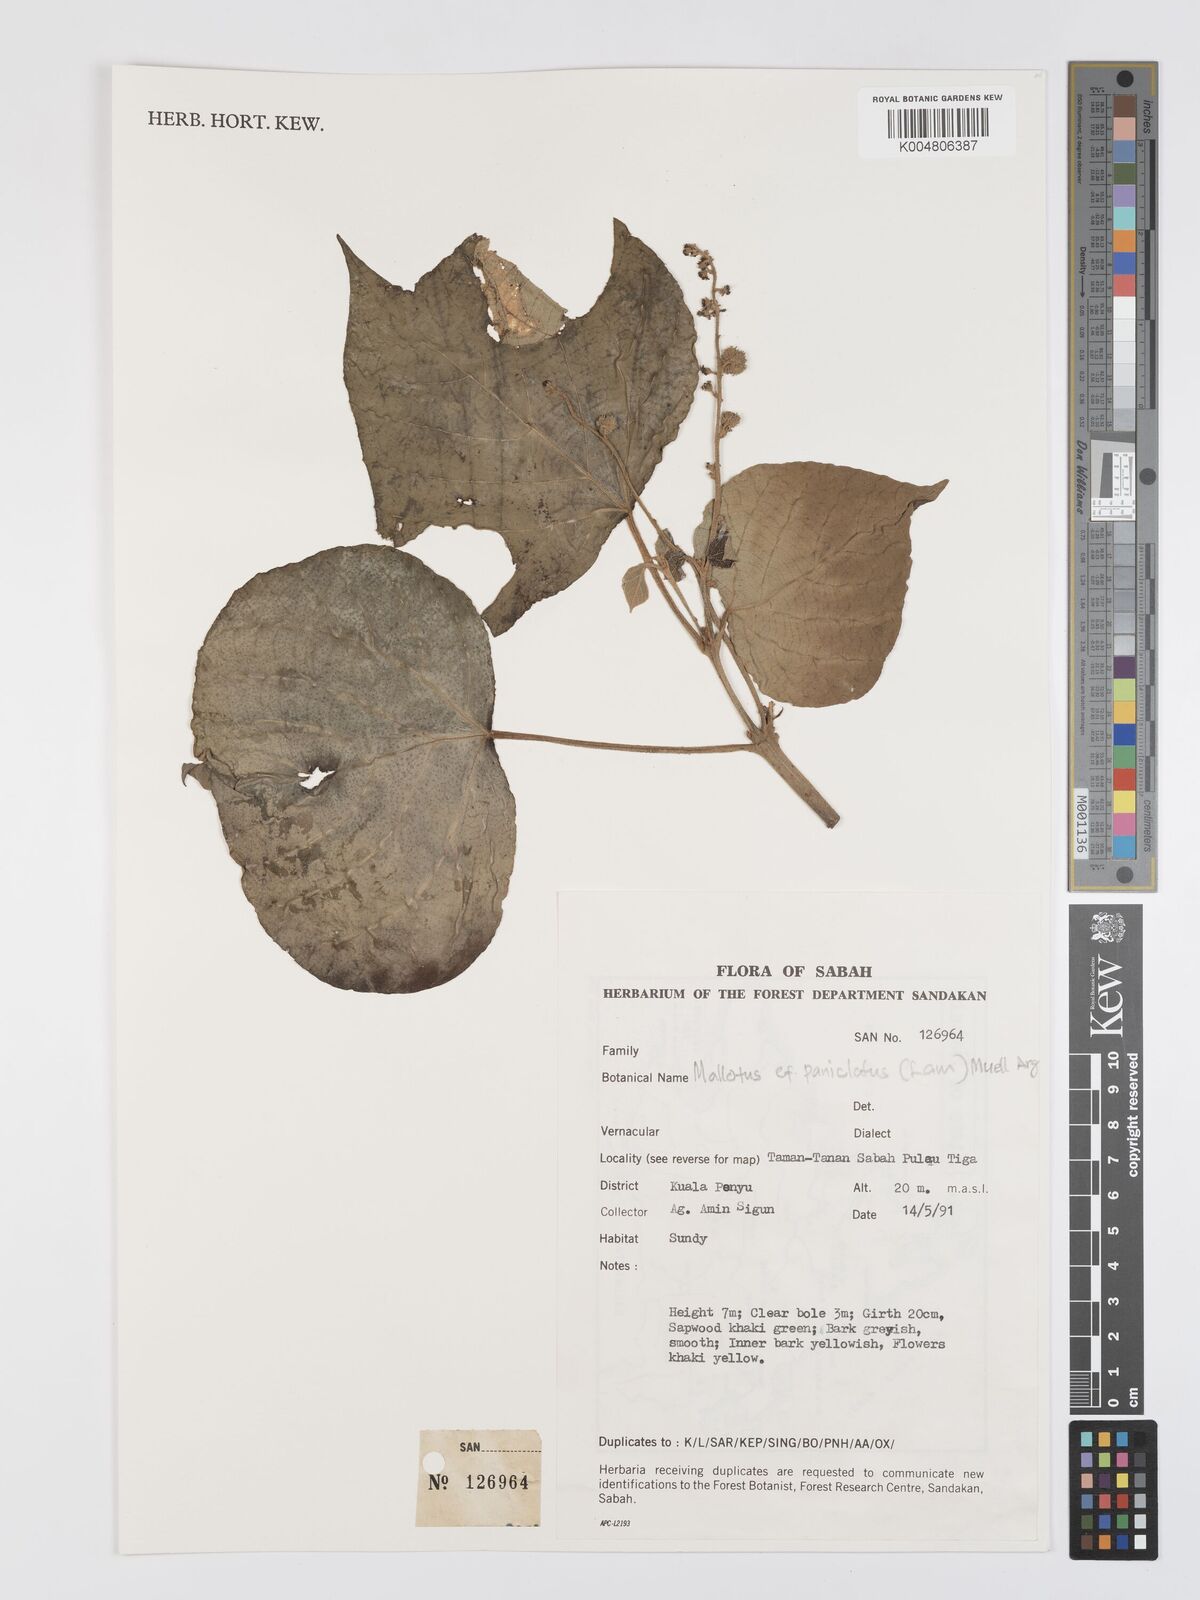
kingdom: Plantae
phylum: Tracheophyta
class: Magnoliopsida
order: Malpighiales
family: Euphorbiaceae
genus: Mallotus
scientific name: Mallotus paniculatus
